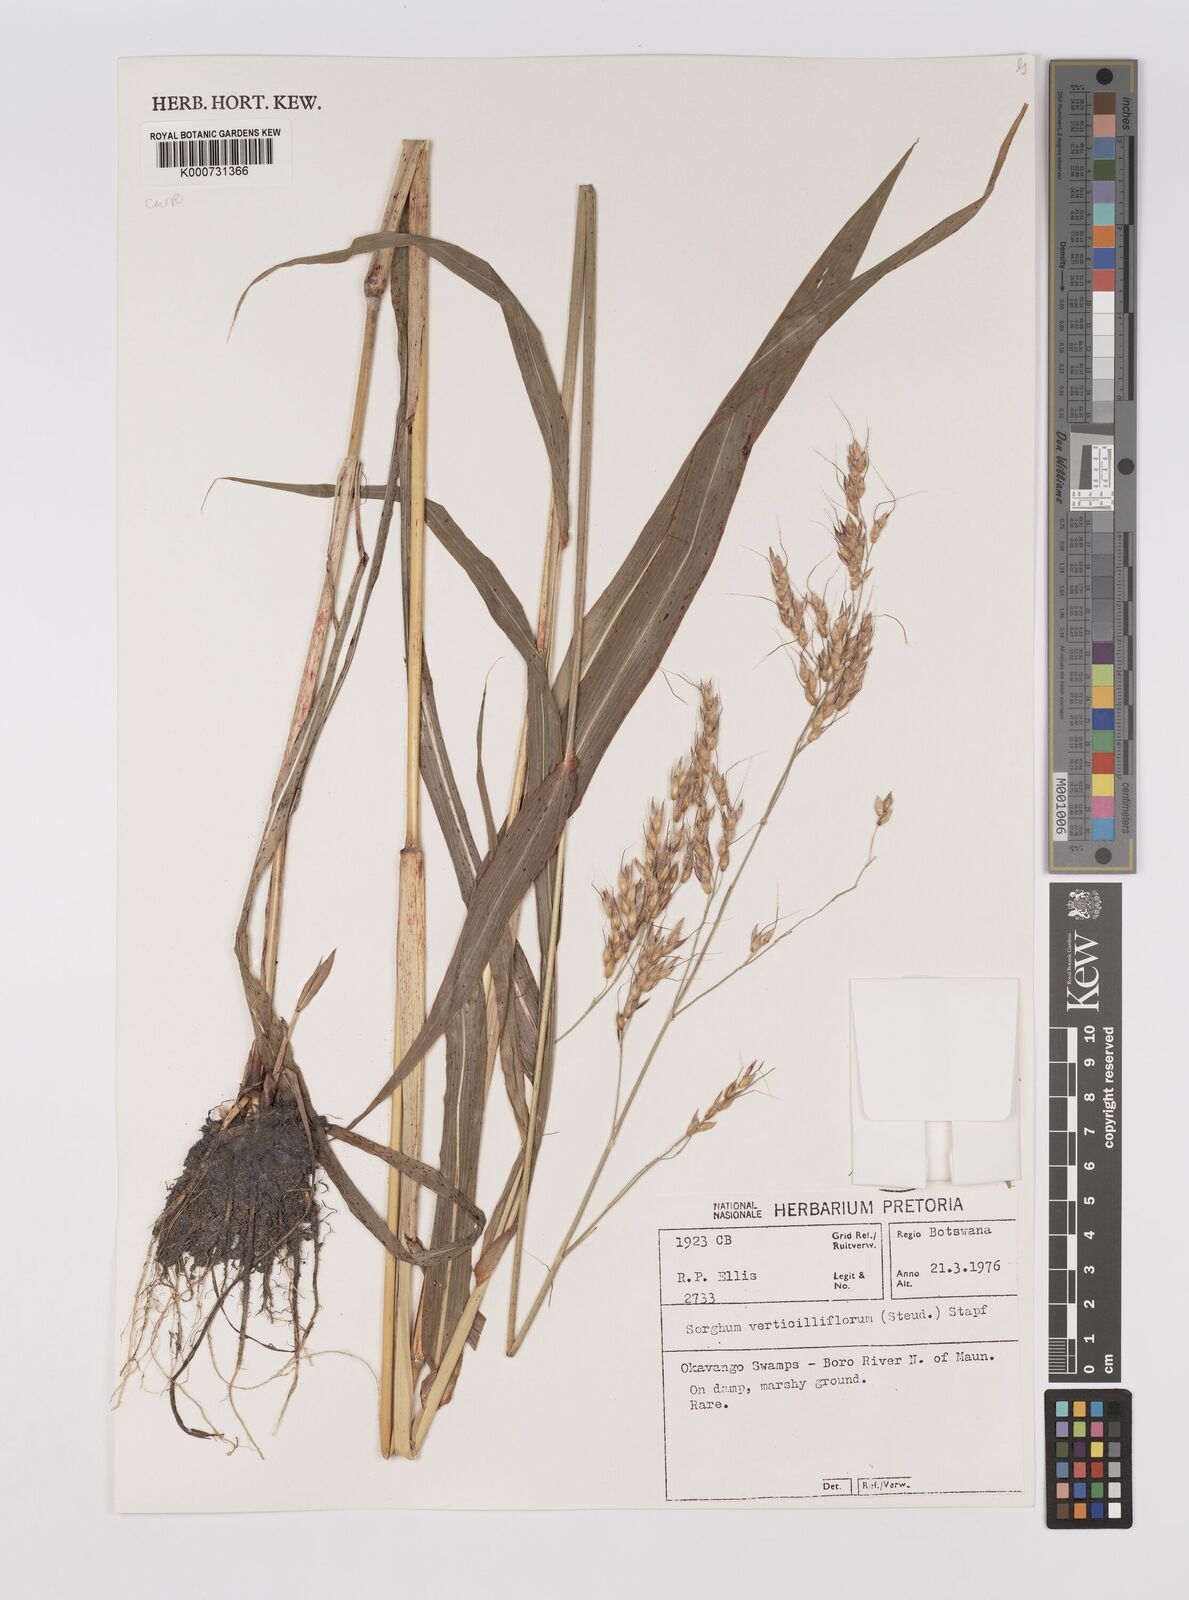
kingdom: Plantae
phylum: Tracheophyta
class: Liliopsida
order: Poales
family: Poaceae
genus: Sorghum
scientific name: Sorghum arundinaceum
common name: Sorghum
